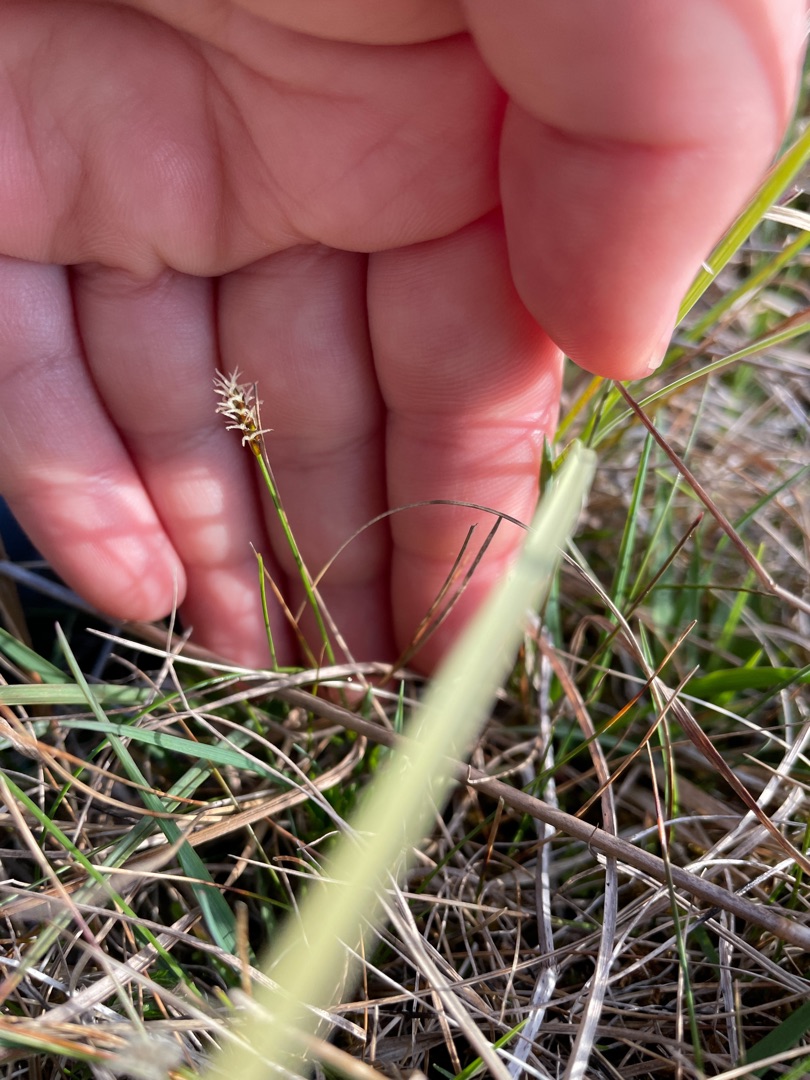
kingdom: Plantae
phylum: Tracheophyta
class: Liliopsida
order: Poales
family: Cyperaceae
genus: Carex
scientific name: Carex dioica
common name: Tvebo star
